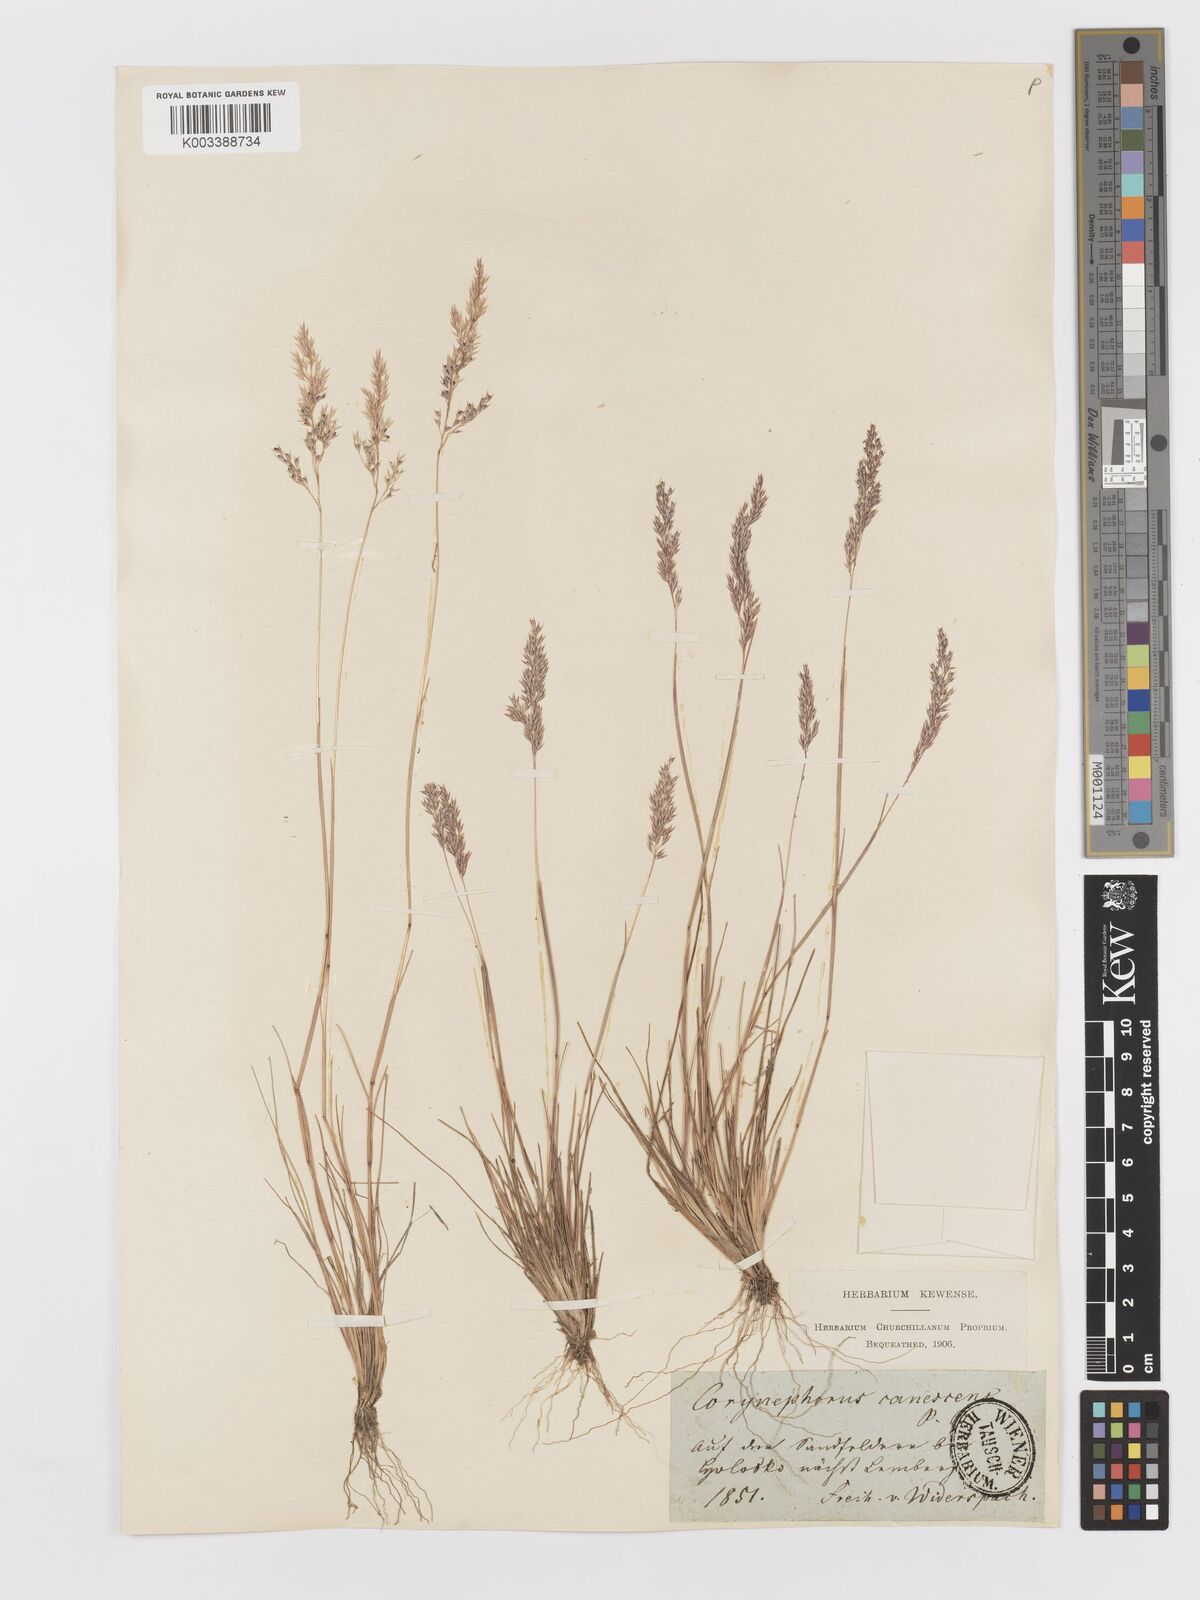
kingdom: Plantae
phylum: Tracheophyta
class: Liliopsida
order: Poales
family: Poaceae
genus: Corynephorus
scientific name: Corynephorus canescens
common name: Grey hair-grass
